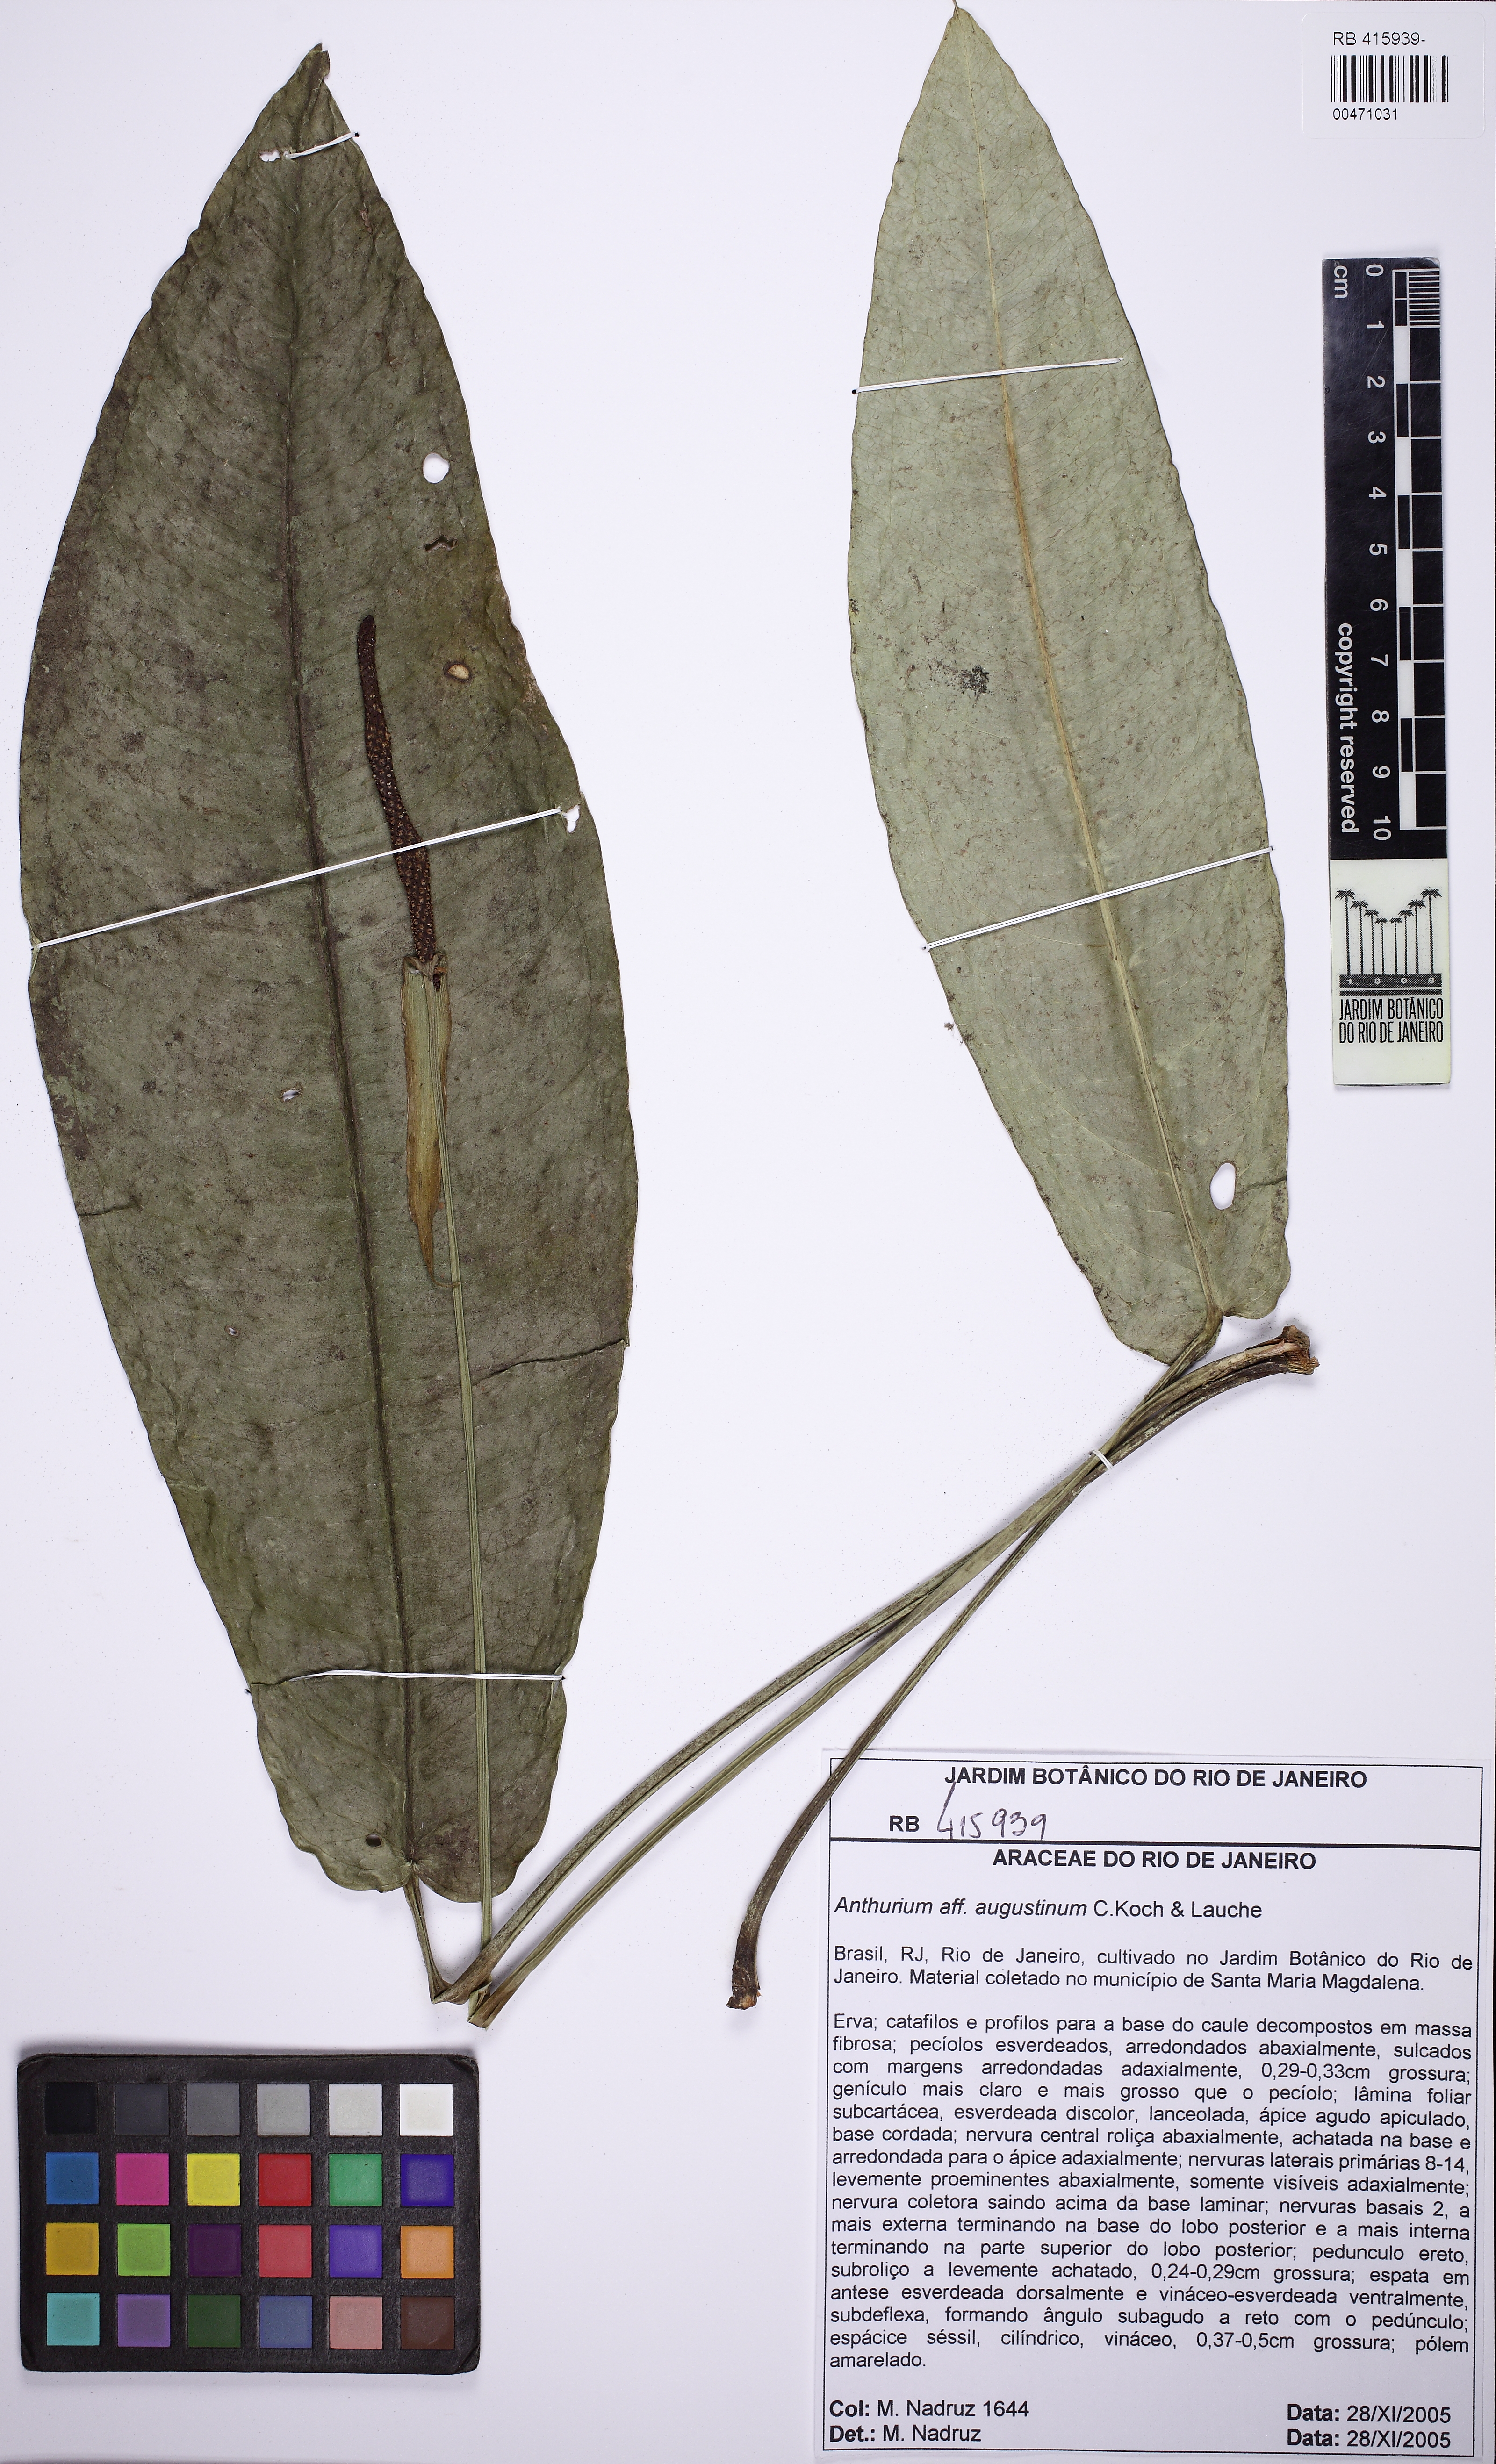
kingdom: Plantae
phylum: Tracheophyta
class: Liliopsida
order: Alismatales
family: Araceae
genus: Anthurium
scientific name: Anthurium polynervium
